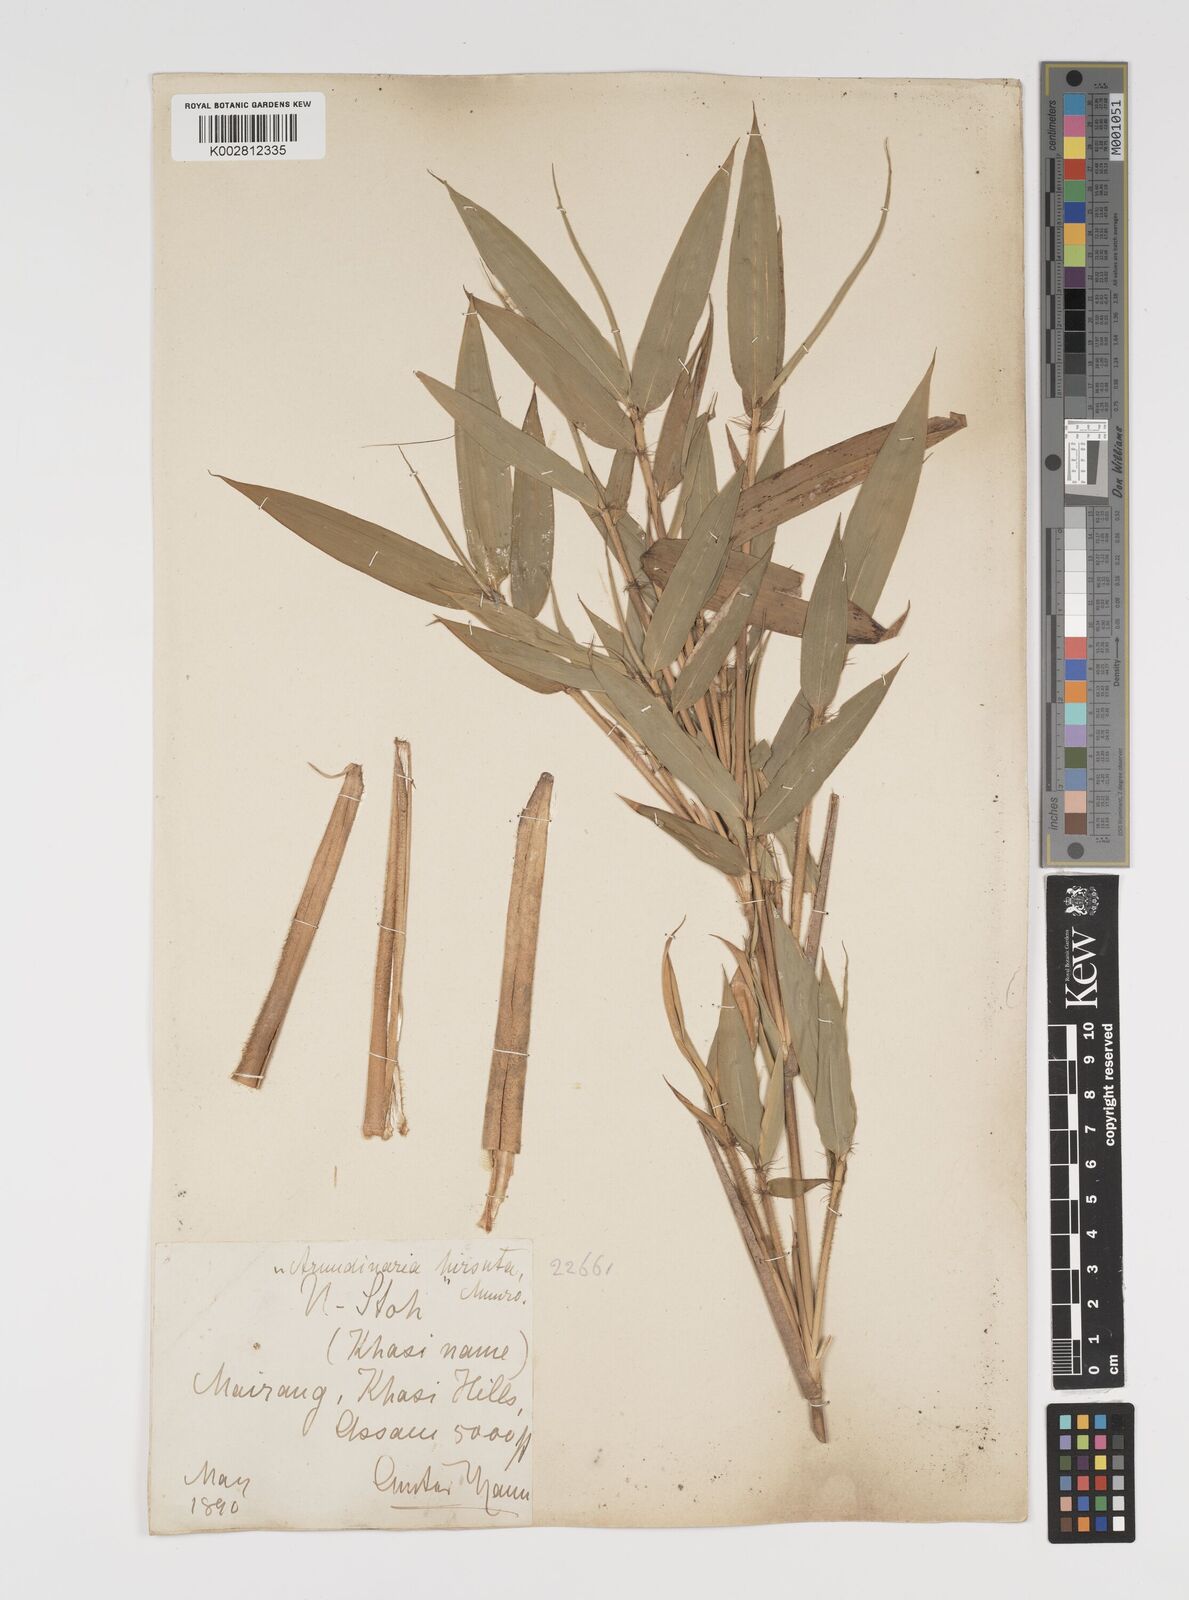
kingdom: Plantae
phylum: Tracheophyta
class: Liliopsida
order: Poales
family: Poaceae
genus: Yushania
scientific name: Yushania hirsuta
